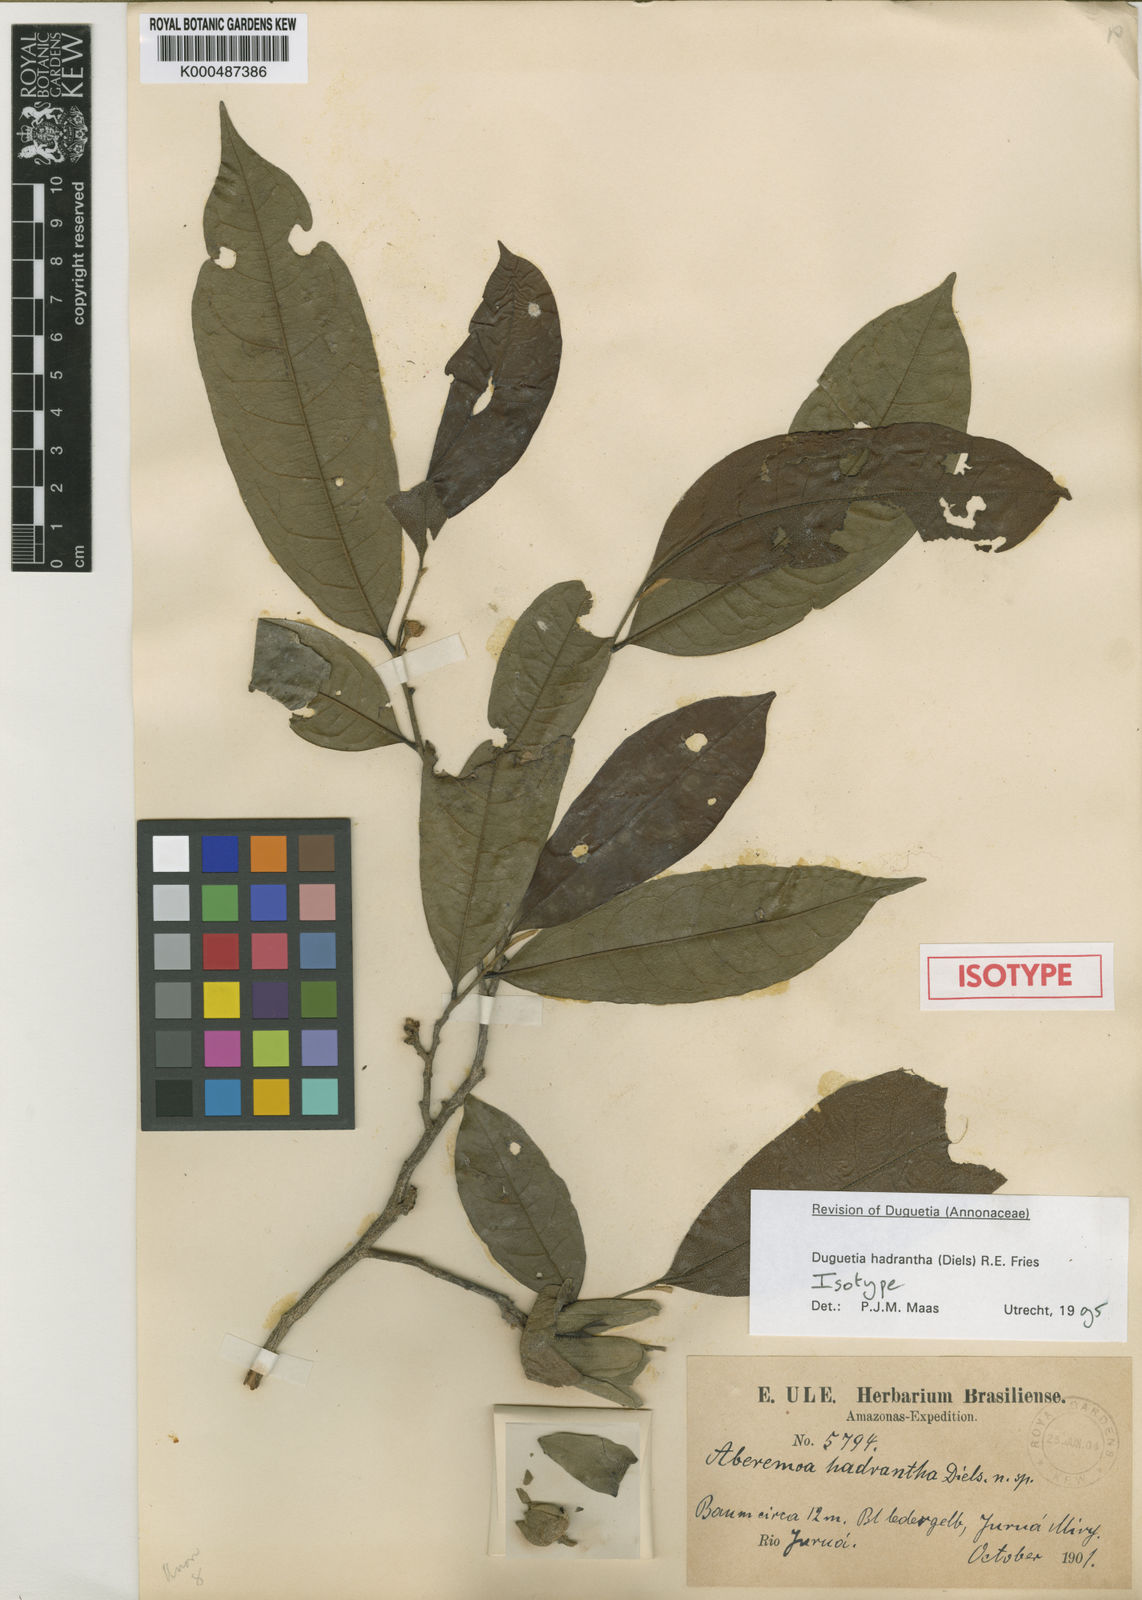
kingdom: Plantae
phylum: Tracheophyta
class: Magnoliopsida
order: Magnoliales
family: Annonaceae
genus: Duguetia
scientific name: Duguetia hadrantha
